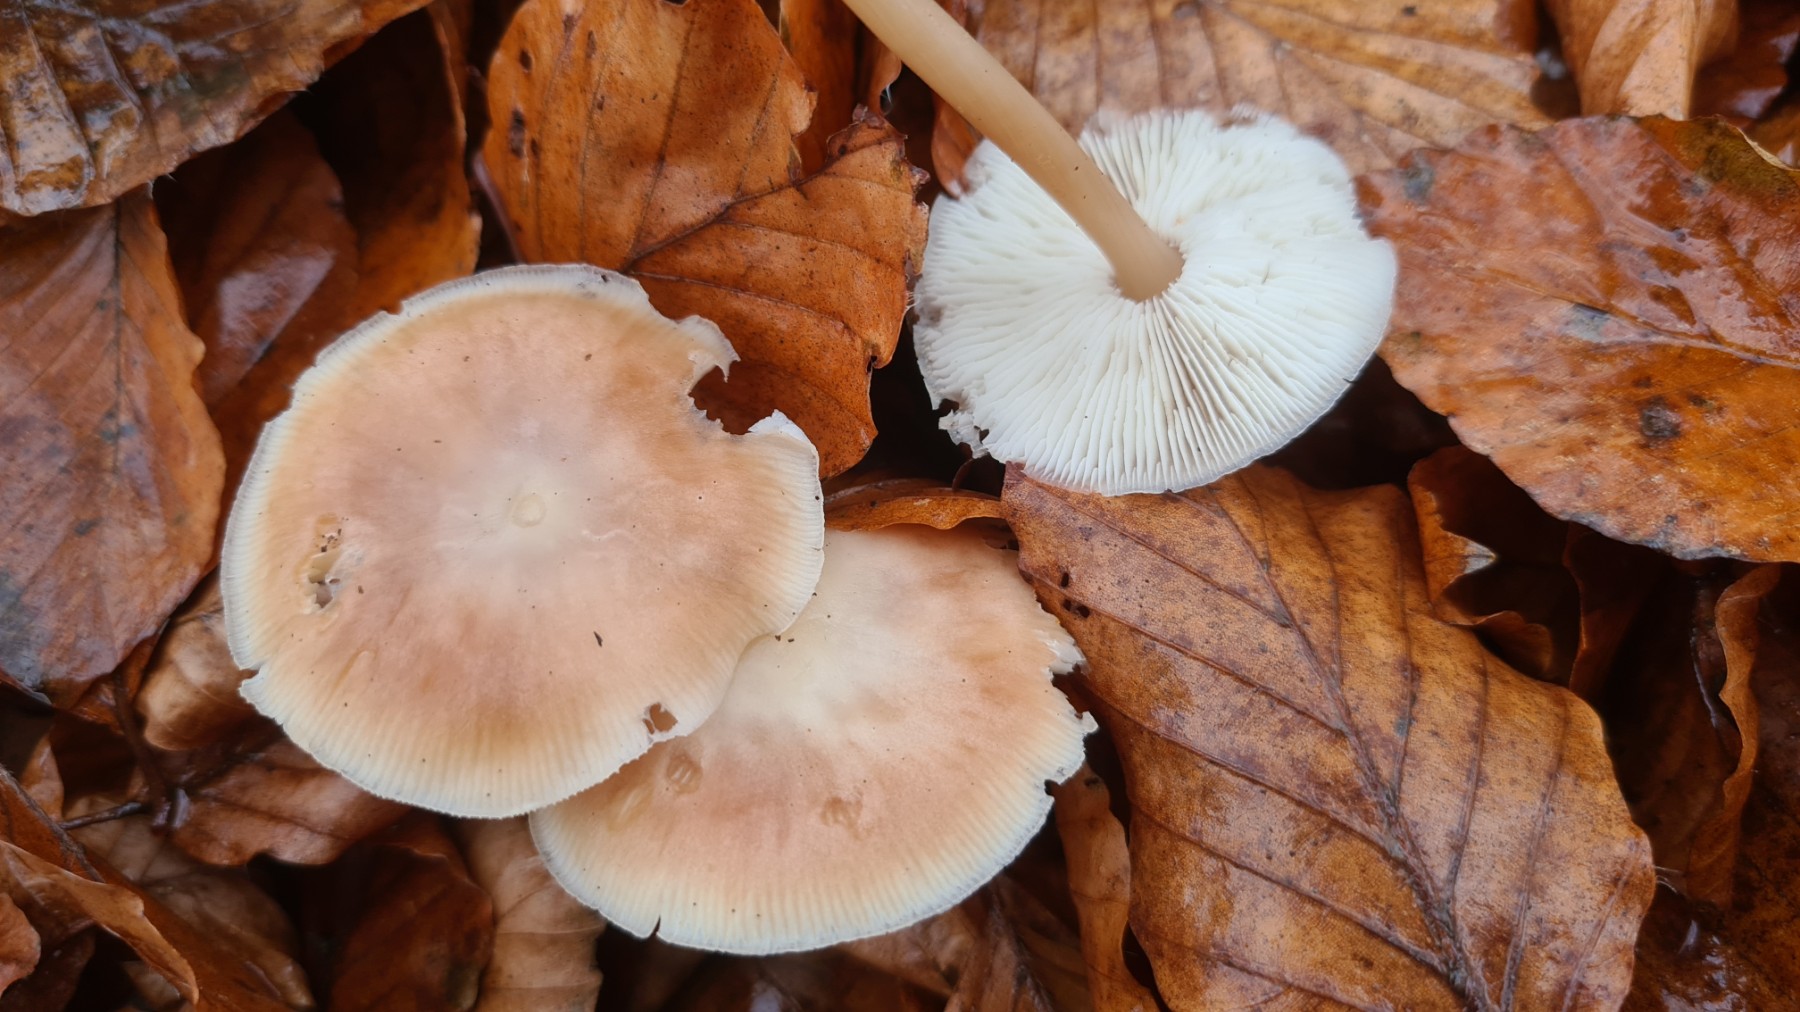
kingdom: Fungi
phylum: Basidiomycota
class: Agaricomycetes
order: Agaricales
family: Omphalotaceae
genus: Gymnopus
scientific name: Gymnopus dryophilus
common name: løv-fladhat
